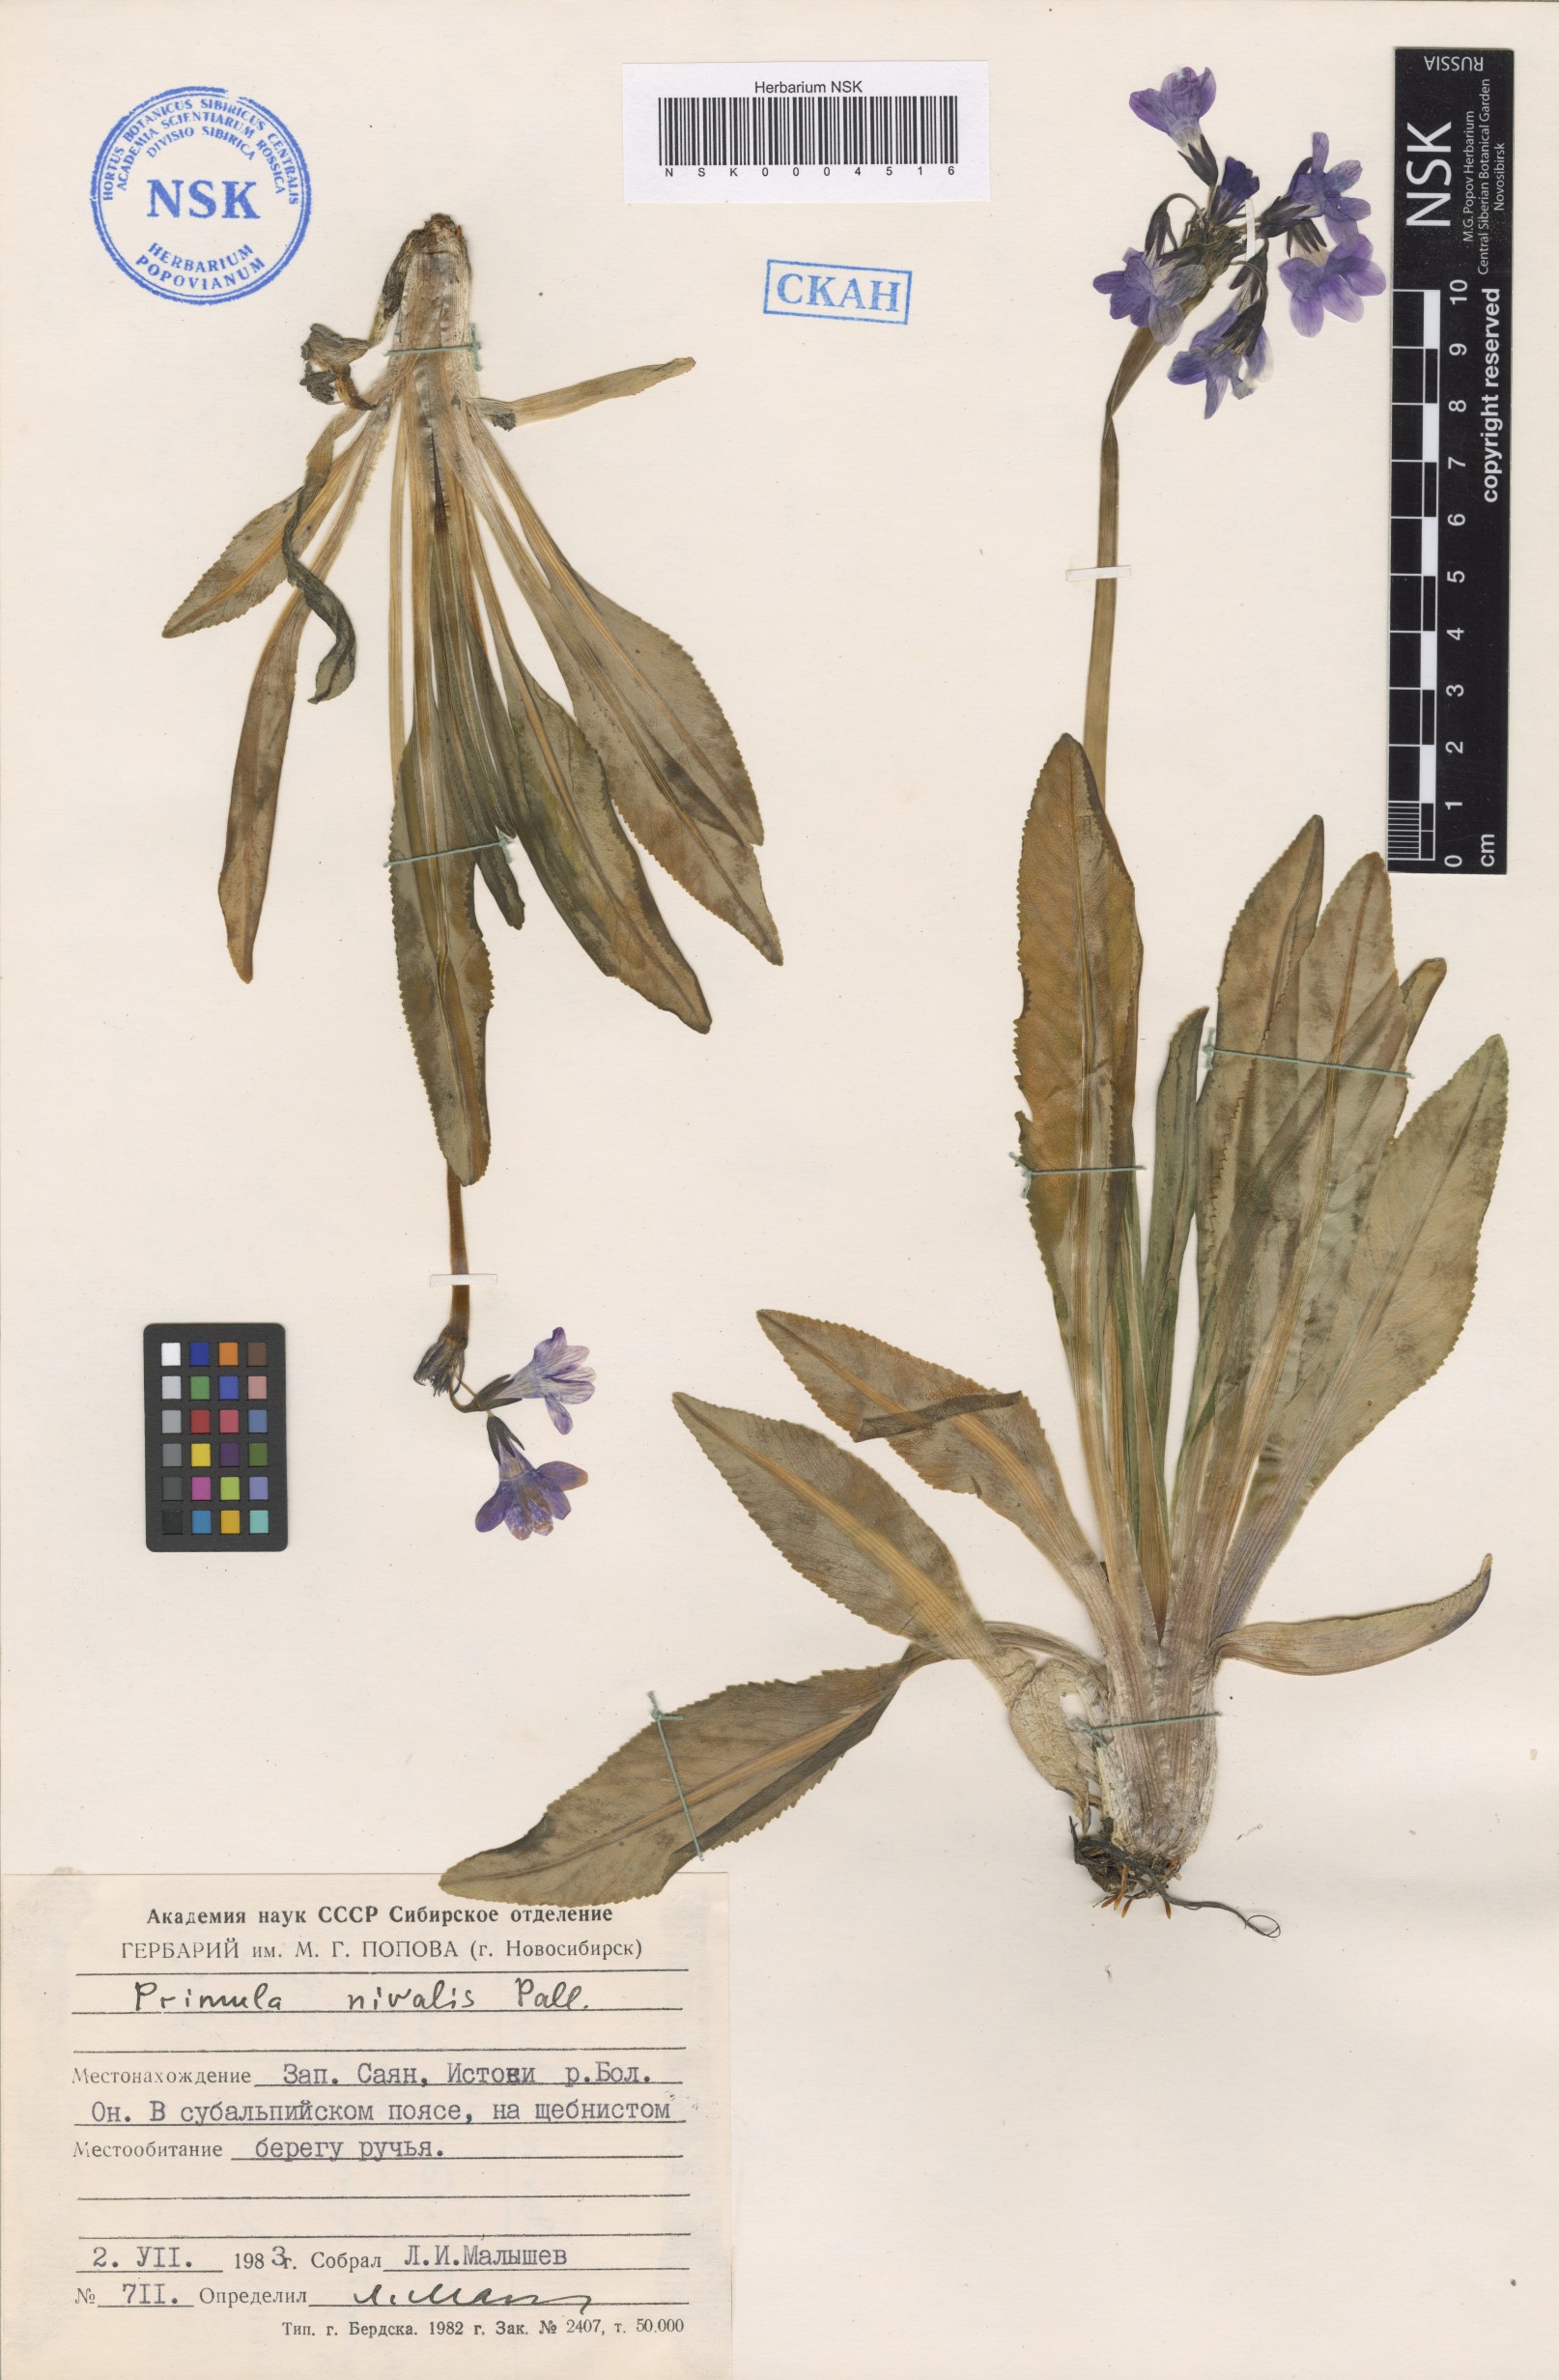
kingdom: Plantae
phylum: Tracheophyta
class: Magnoliopsida
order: Ericales
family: Primulaceae
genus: Primula
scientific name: Primula nivalis
